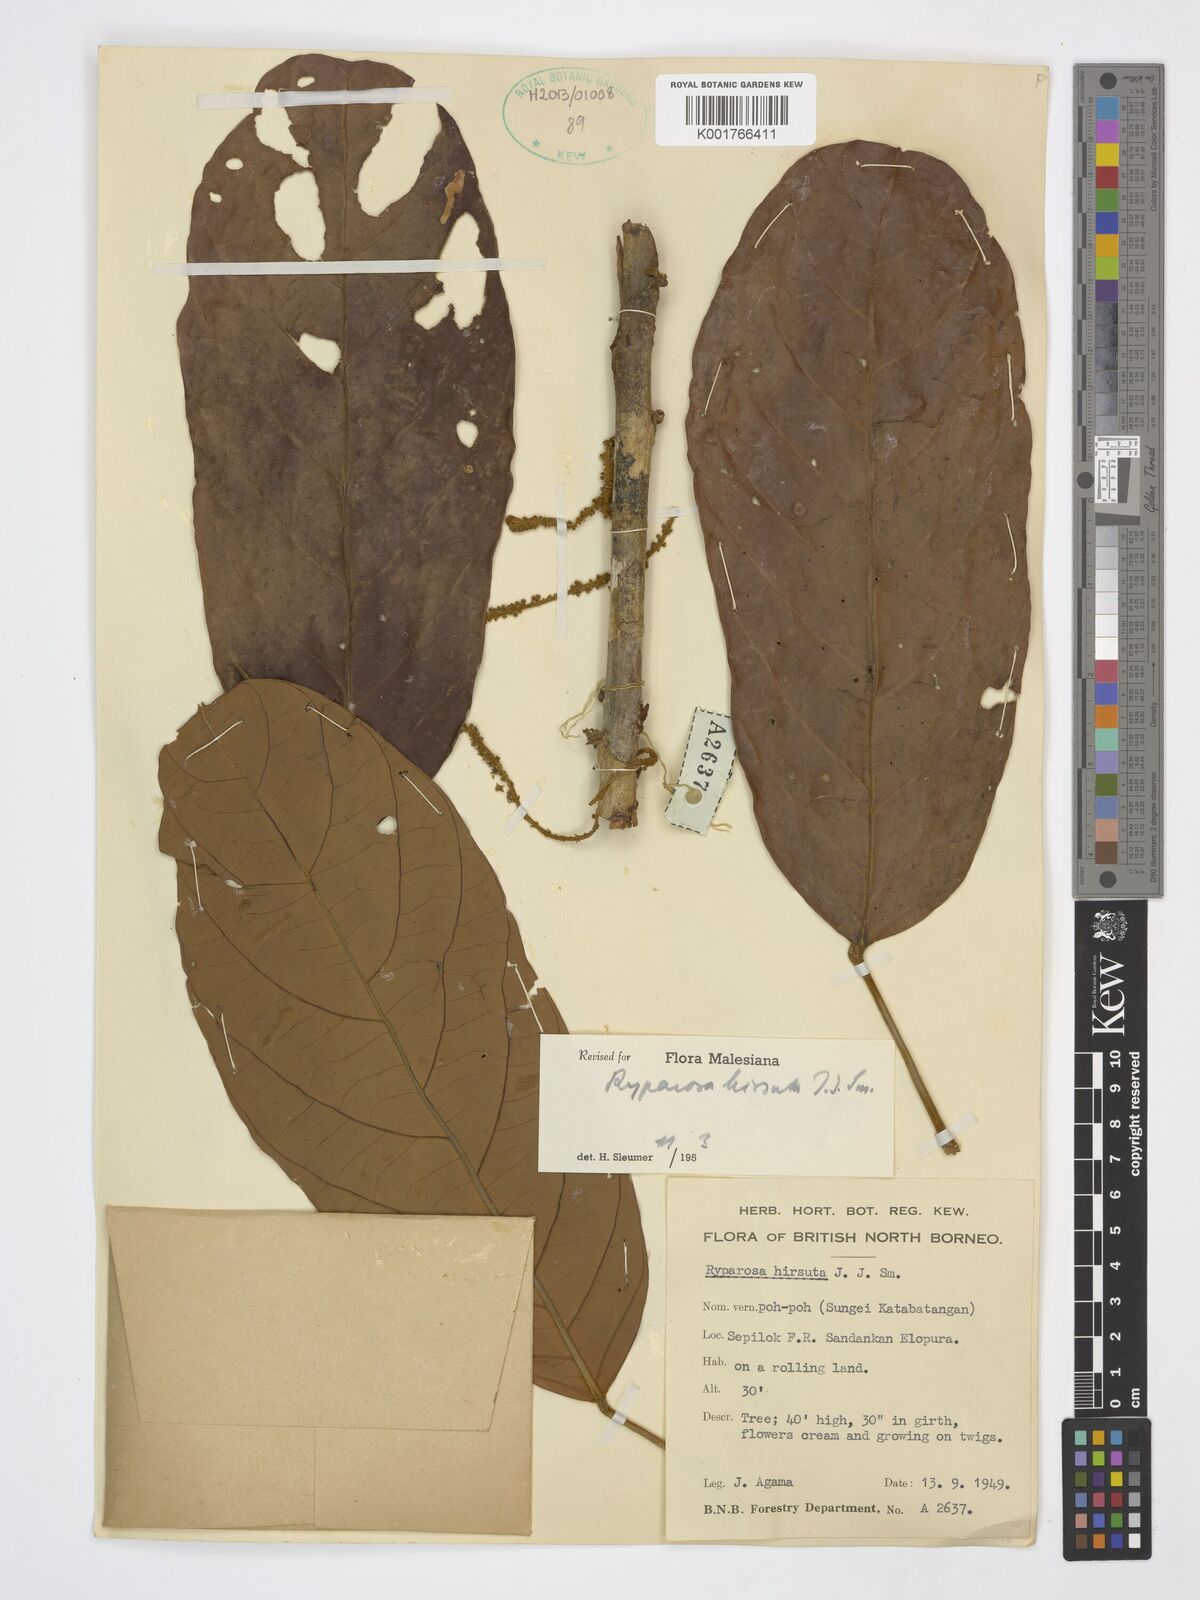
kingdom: Plantae
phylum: Tracheophyta
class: Magnoliopsida
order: Malpighiales
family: Achariaceae
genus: Ryparosa
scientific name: Ryparosa hirsuta
